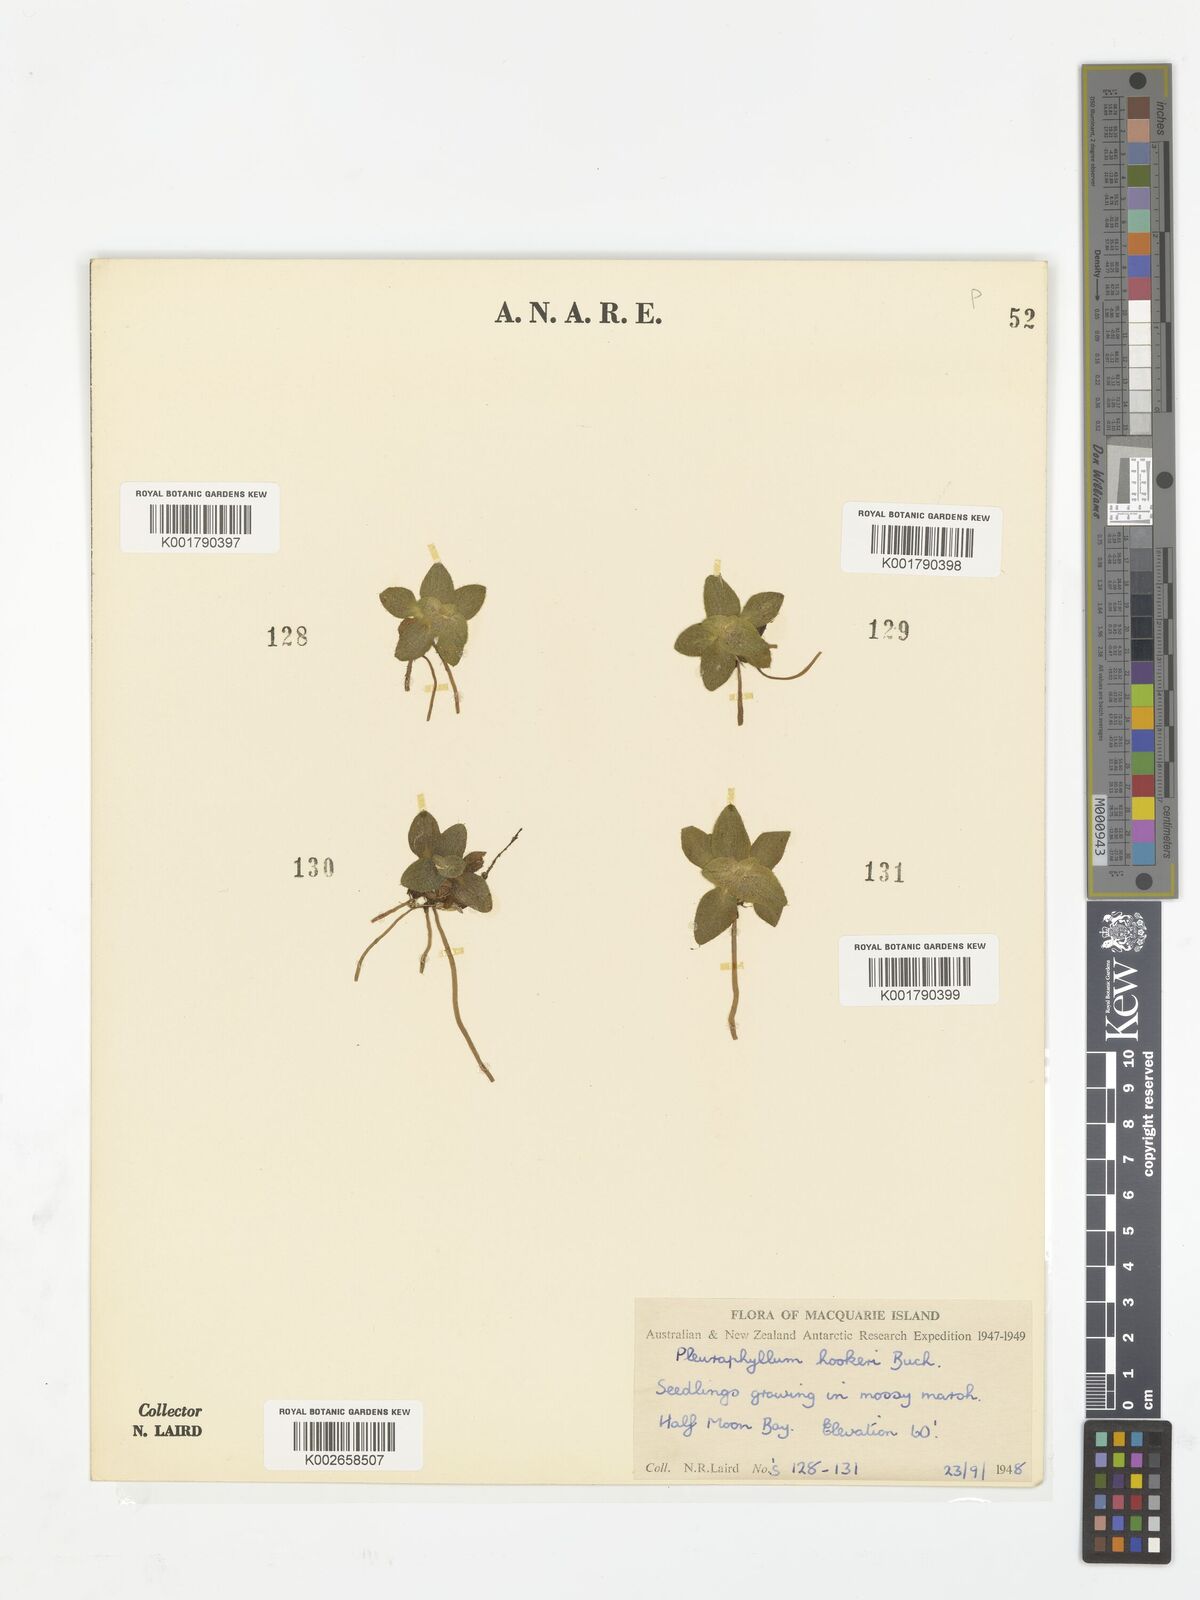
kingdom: Plantae
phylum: Tracheophyta
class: Magnoliopsida
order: Asterales
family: Asteraceae
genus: Pleurophyllum
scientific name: Pleurophyllum hookeri
